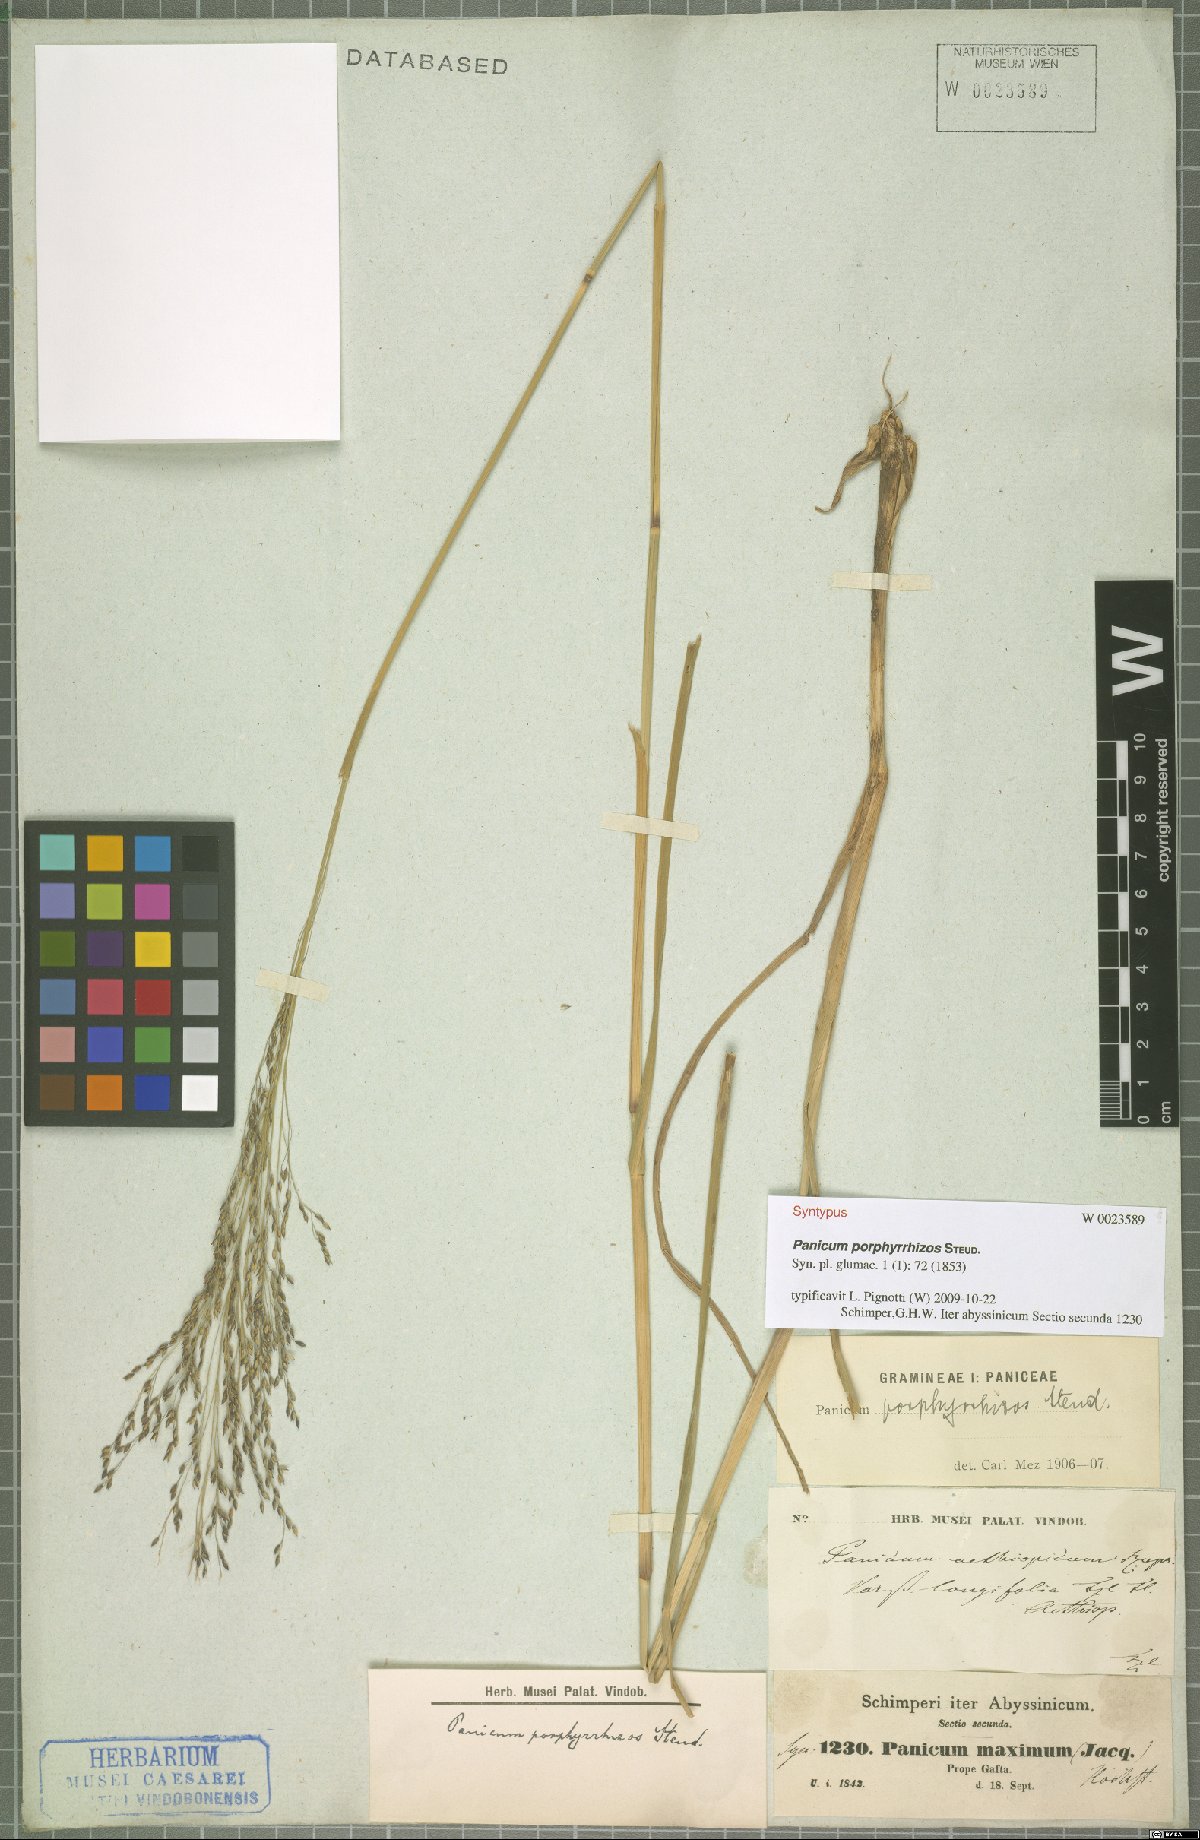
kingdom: Plantae
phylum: Tracheophyta
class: Liliopsida
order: Poales
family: Poaceae
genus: Panicum
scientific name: Panicum porphyrrhizos
